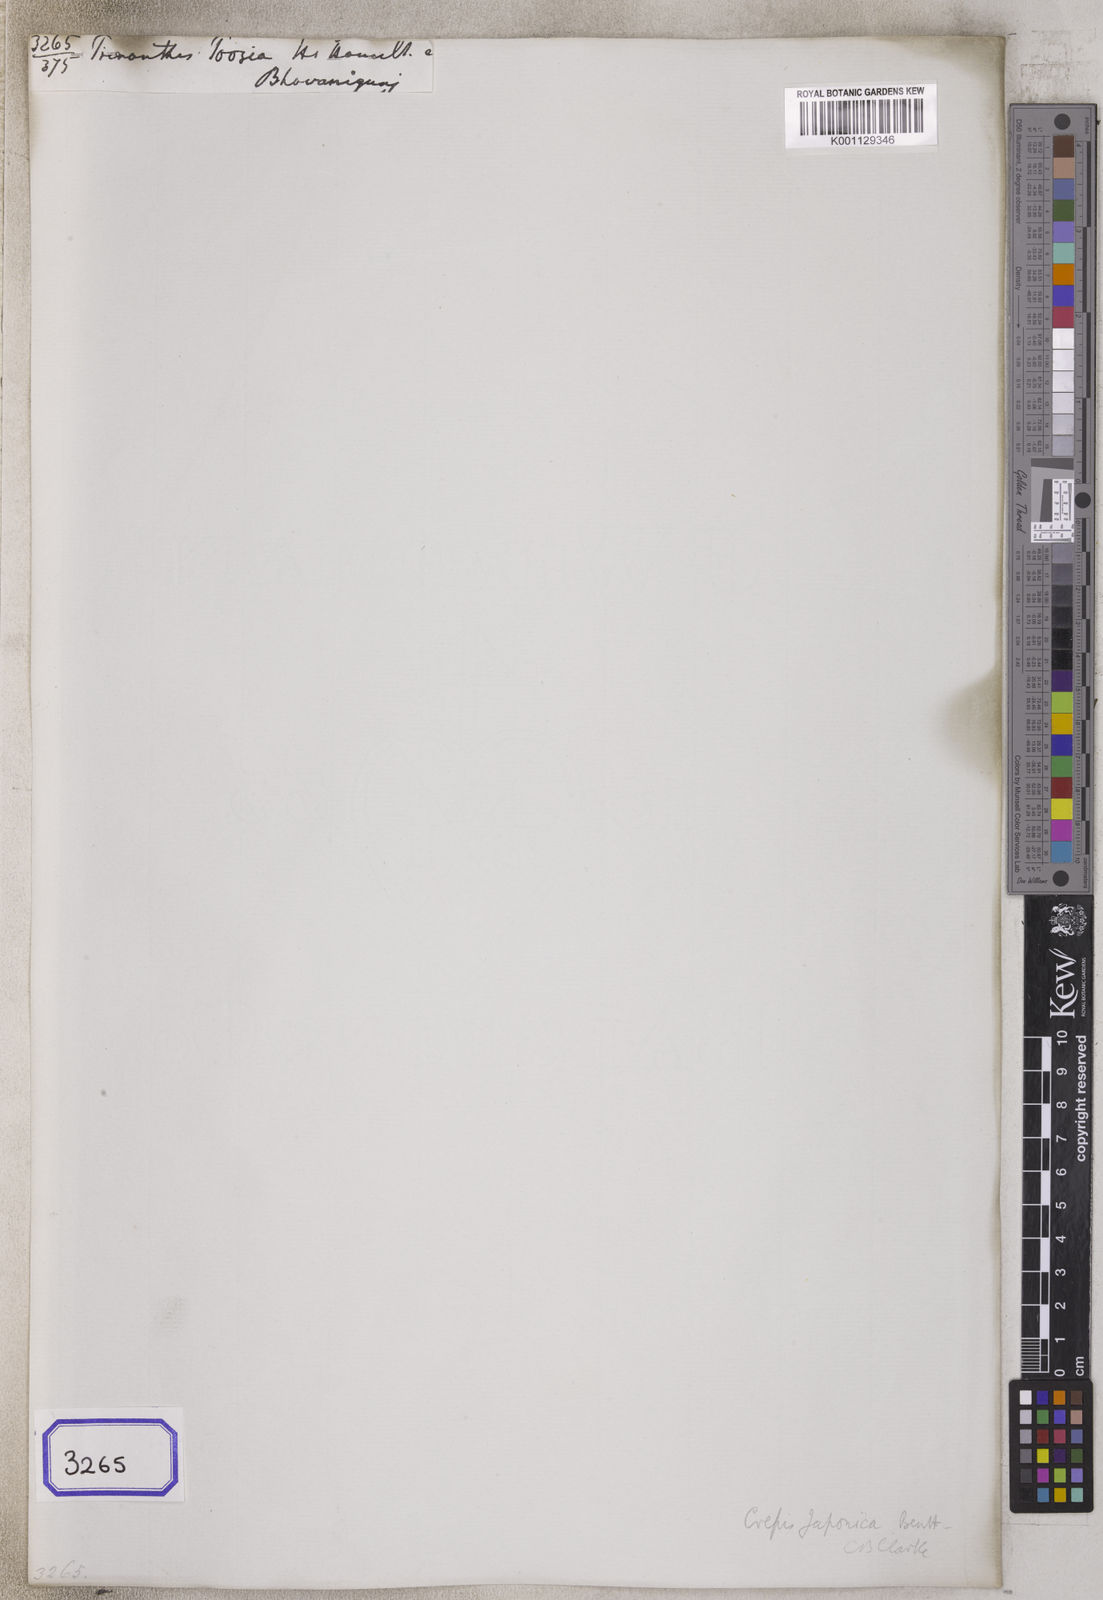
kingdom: Plantae
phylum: Tracheophyta
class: Magnoliopsida
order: Asterales
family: Asteraceae
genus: Youngia
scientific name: Youngia japonica
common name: Oriental false hawksbeard
